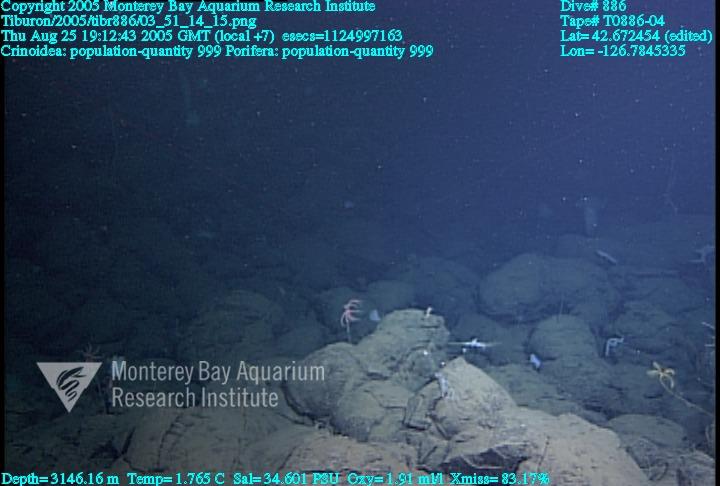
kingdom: Animalia
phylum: Porifera
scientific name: Porifera
